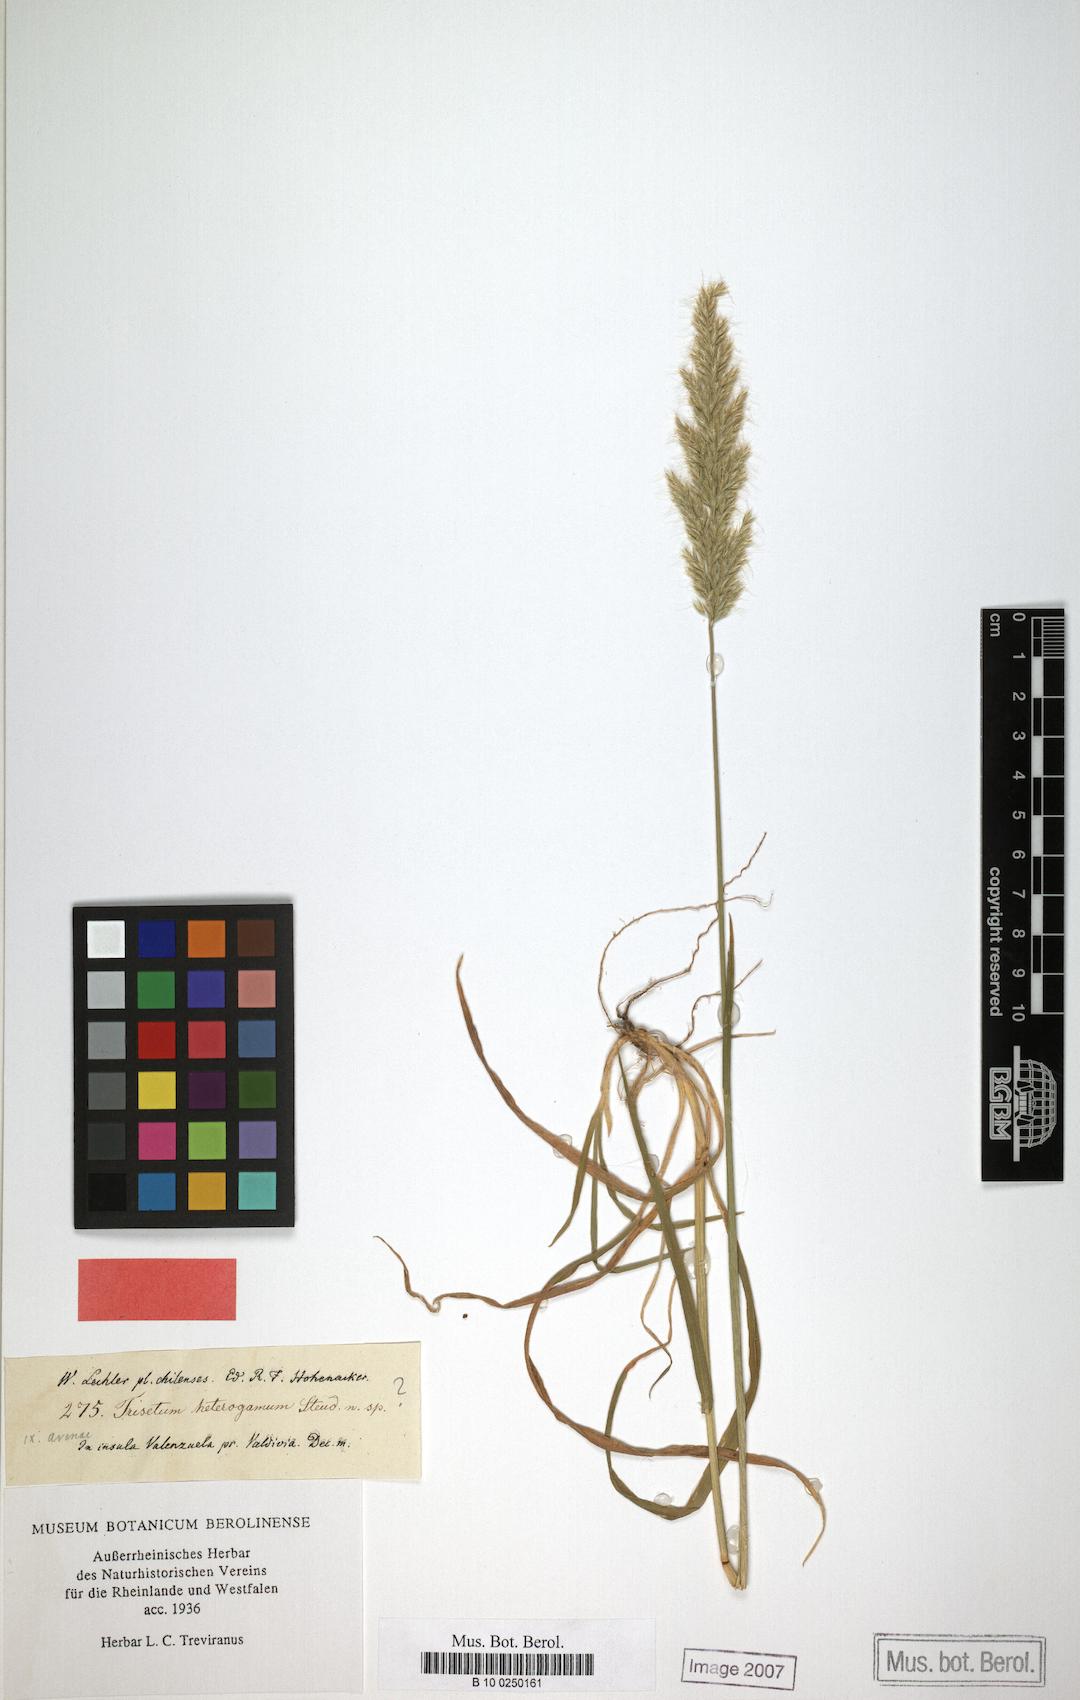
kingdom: Plantae
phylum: Tracheophyta
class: Liliopsida
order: Poales
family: Poaceae
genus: Trisetum
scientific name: Trisetum caudulatum
